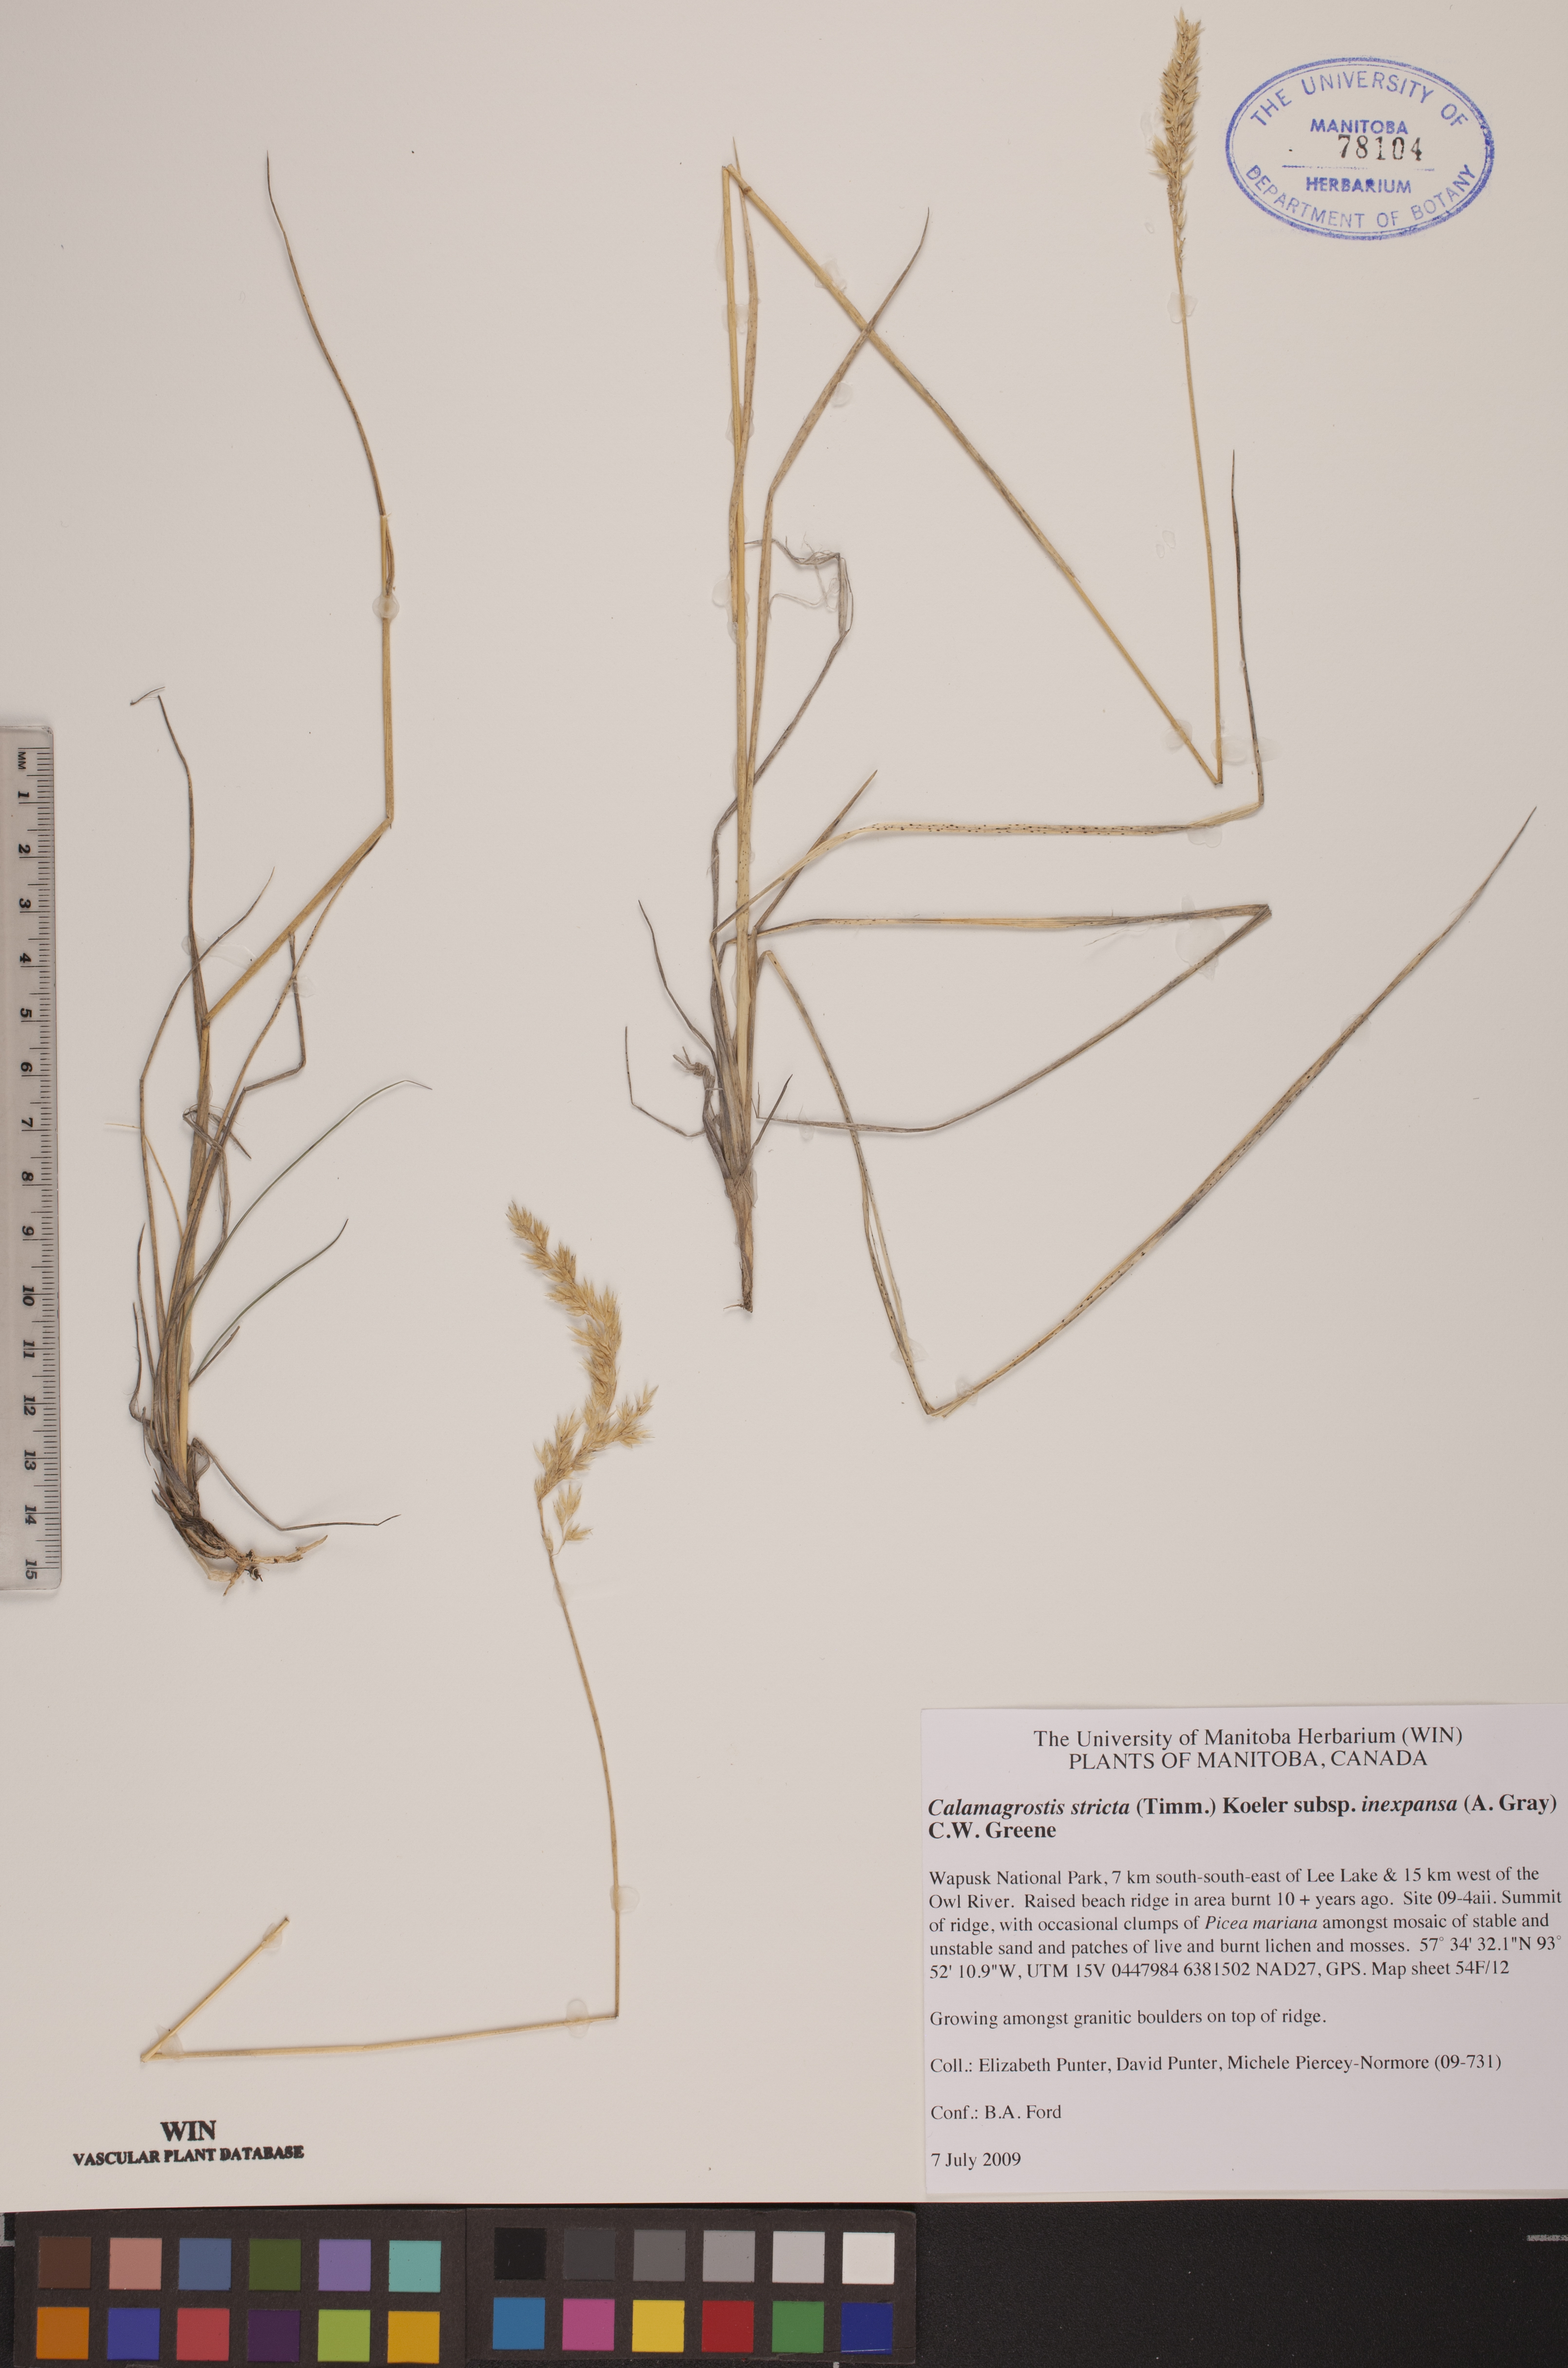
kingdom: Plantae
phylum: Tracheophyta
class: Liliopsida
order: Poales
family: Poaceae
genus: Calamagrostis
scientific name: Calamagrostis inexpansa
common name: Northern reedgrass
